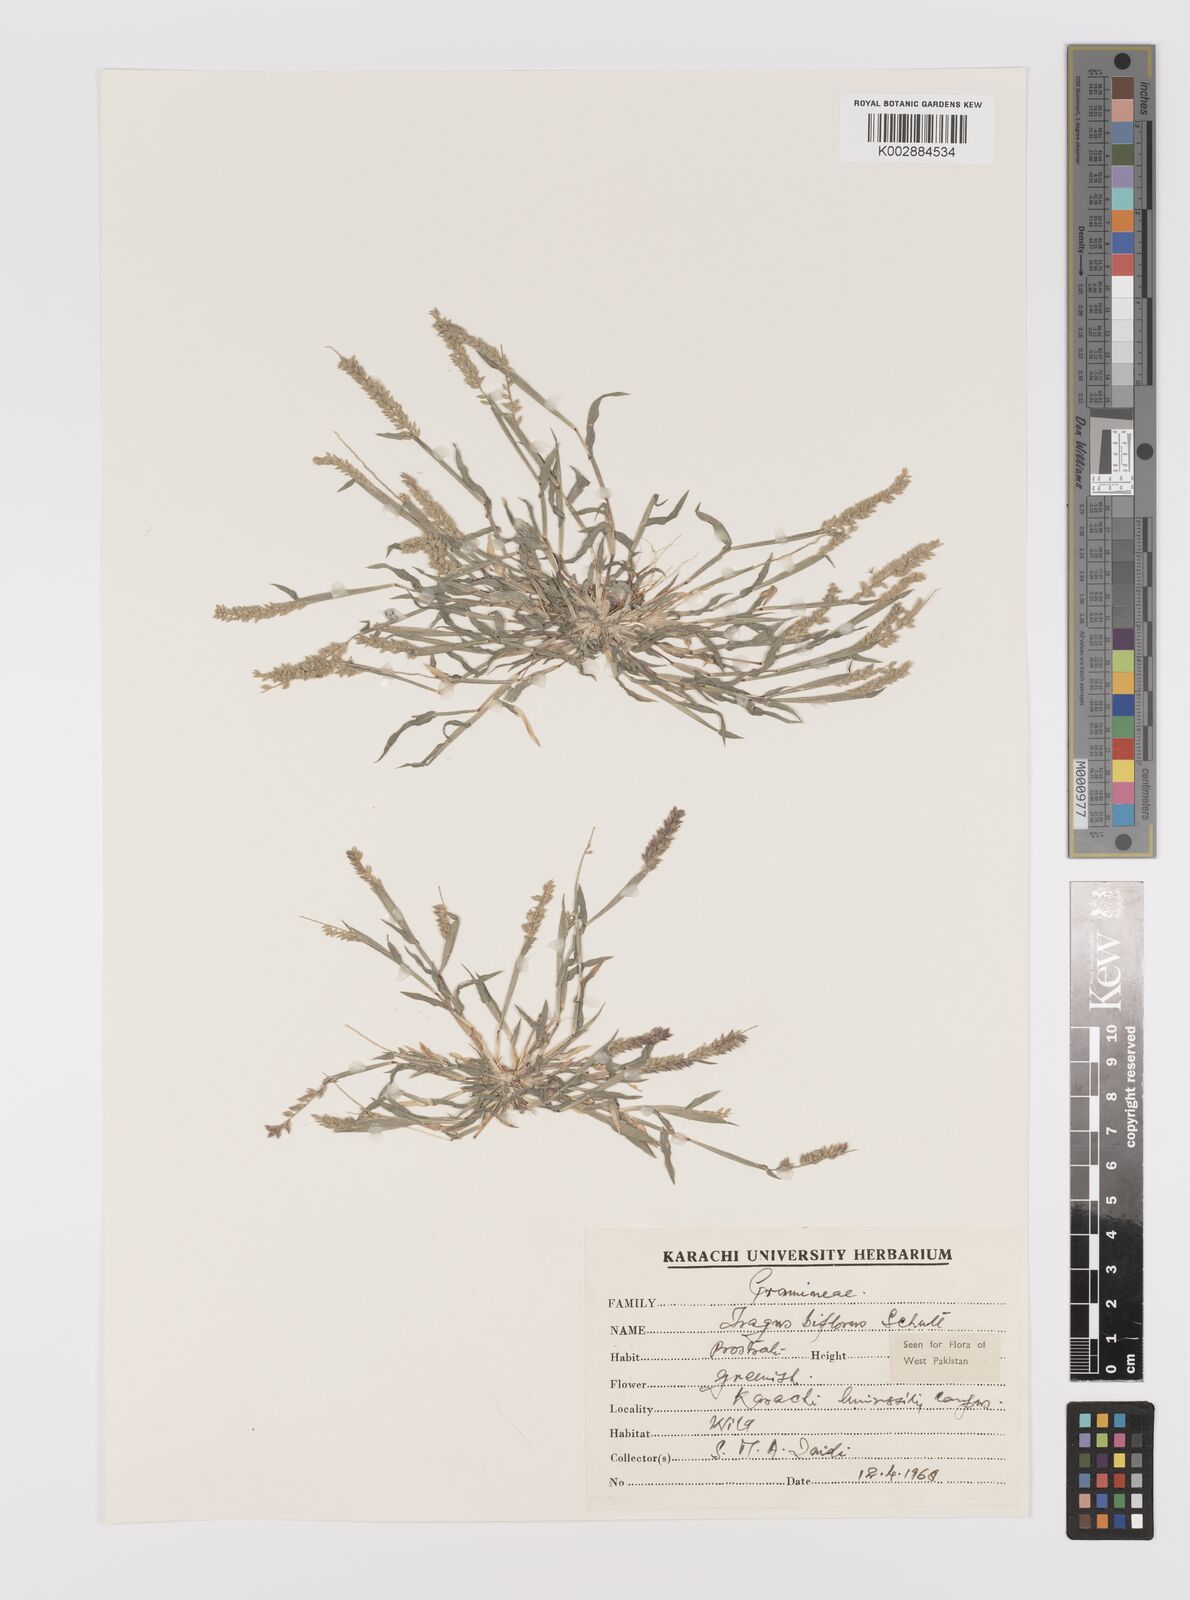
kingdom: Plantae
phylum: Tracheophyta
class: Liliopsida
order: Poales
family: Poaceae
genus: Tragus
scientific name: Tragus mongolorum
